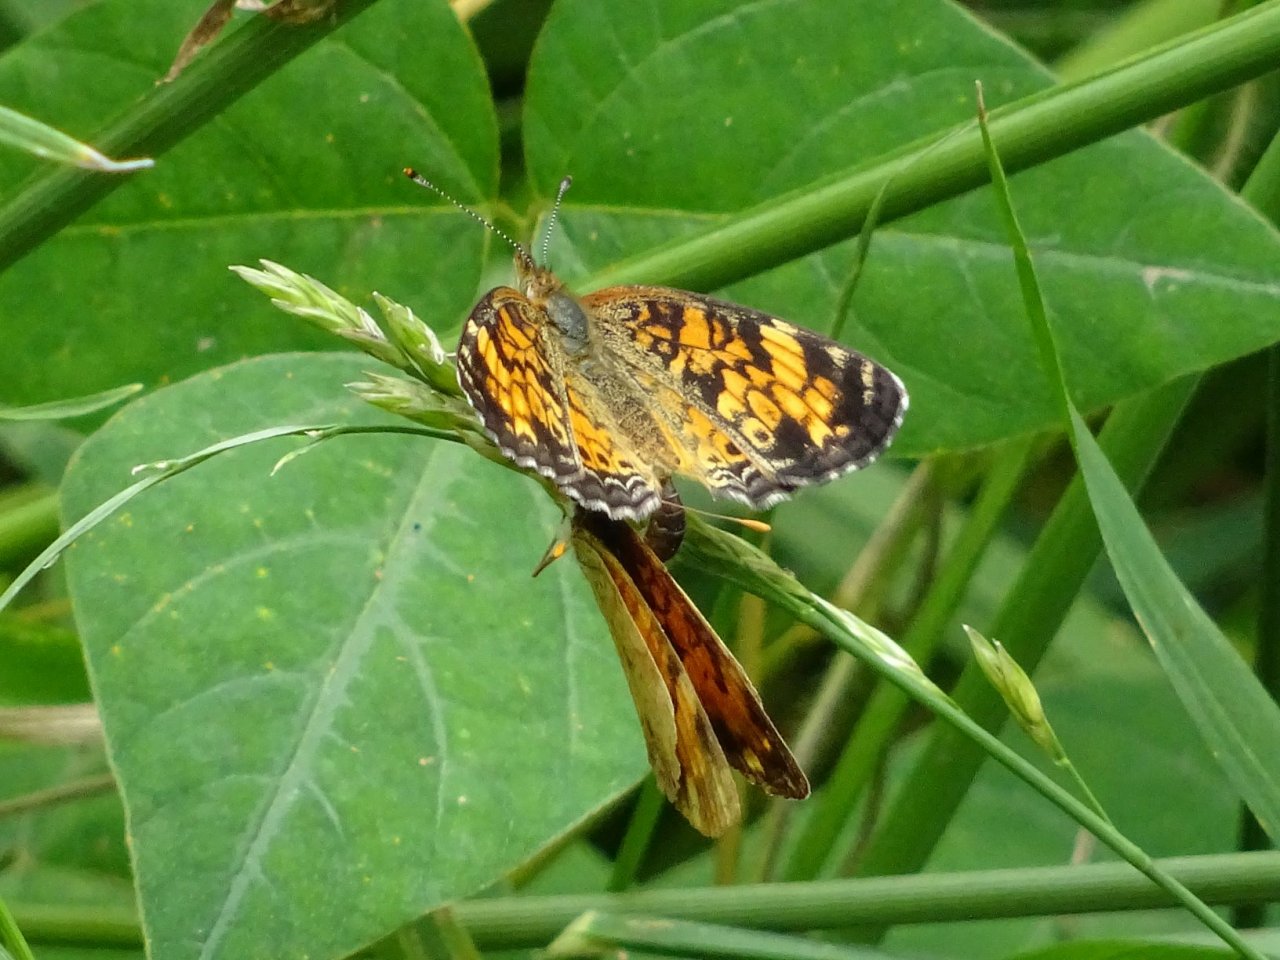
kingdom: Animalia
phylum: Arthropoda
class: Insecta
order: Lepidoptera
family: Nymphalidae
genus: Phyciodes
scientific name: Phyciodes tharos
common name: Northern Crescent
